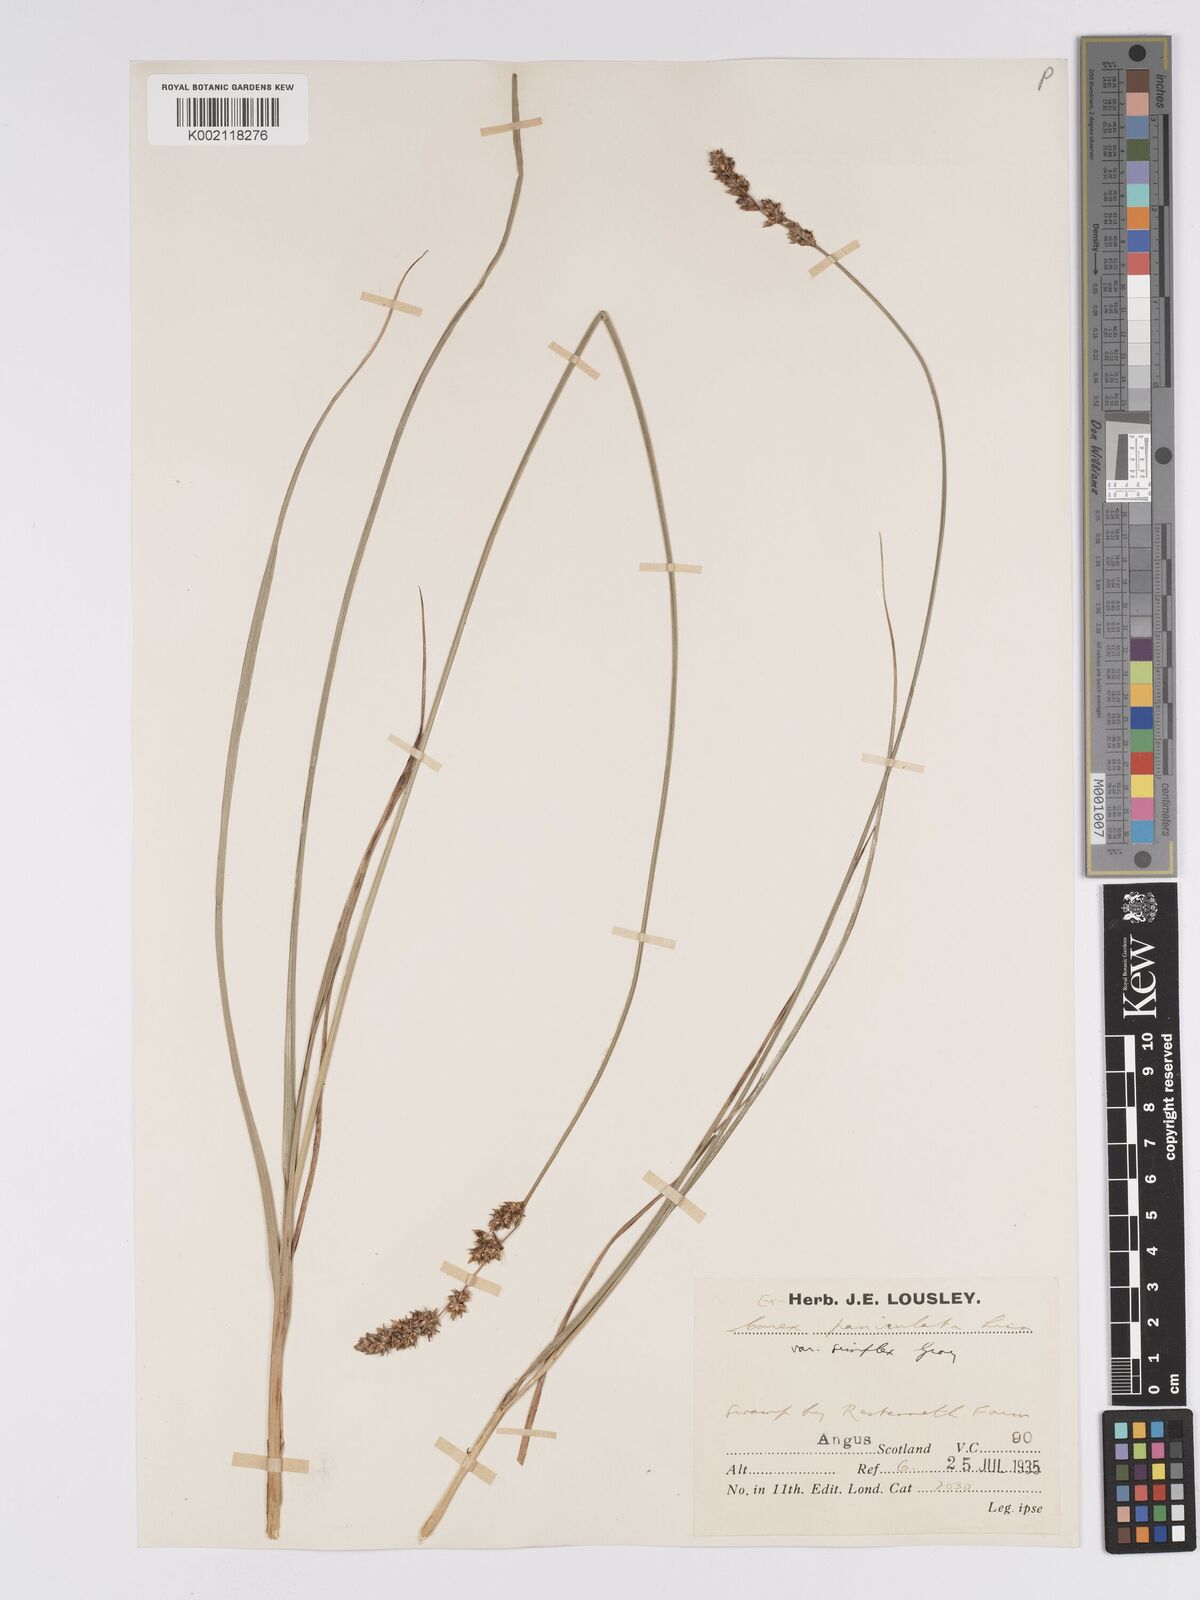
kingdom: Plantae
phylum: Tracheophyta
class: Liliopsida
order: Poales
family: Cyperaceae
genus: Carex
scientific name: Carex paniculata
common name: Greater tussock-sedge
